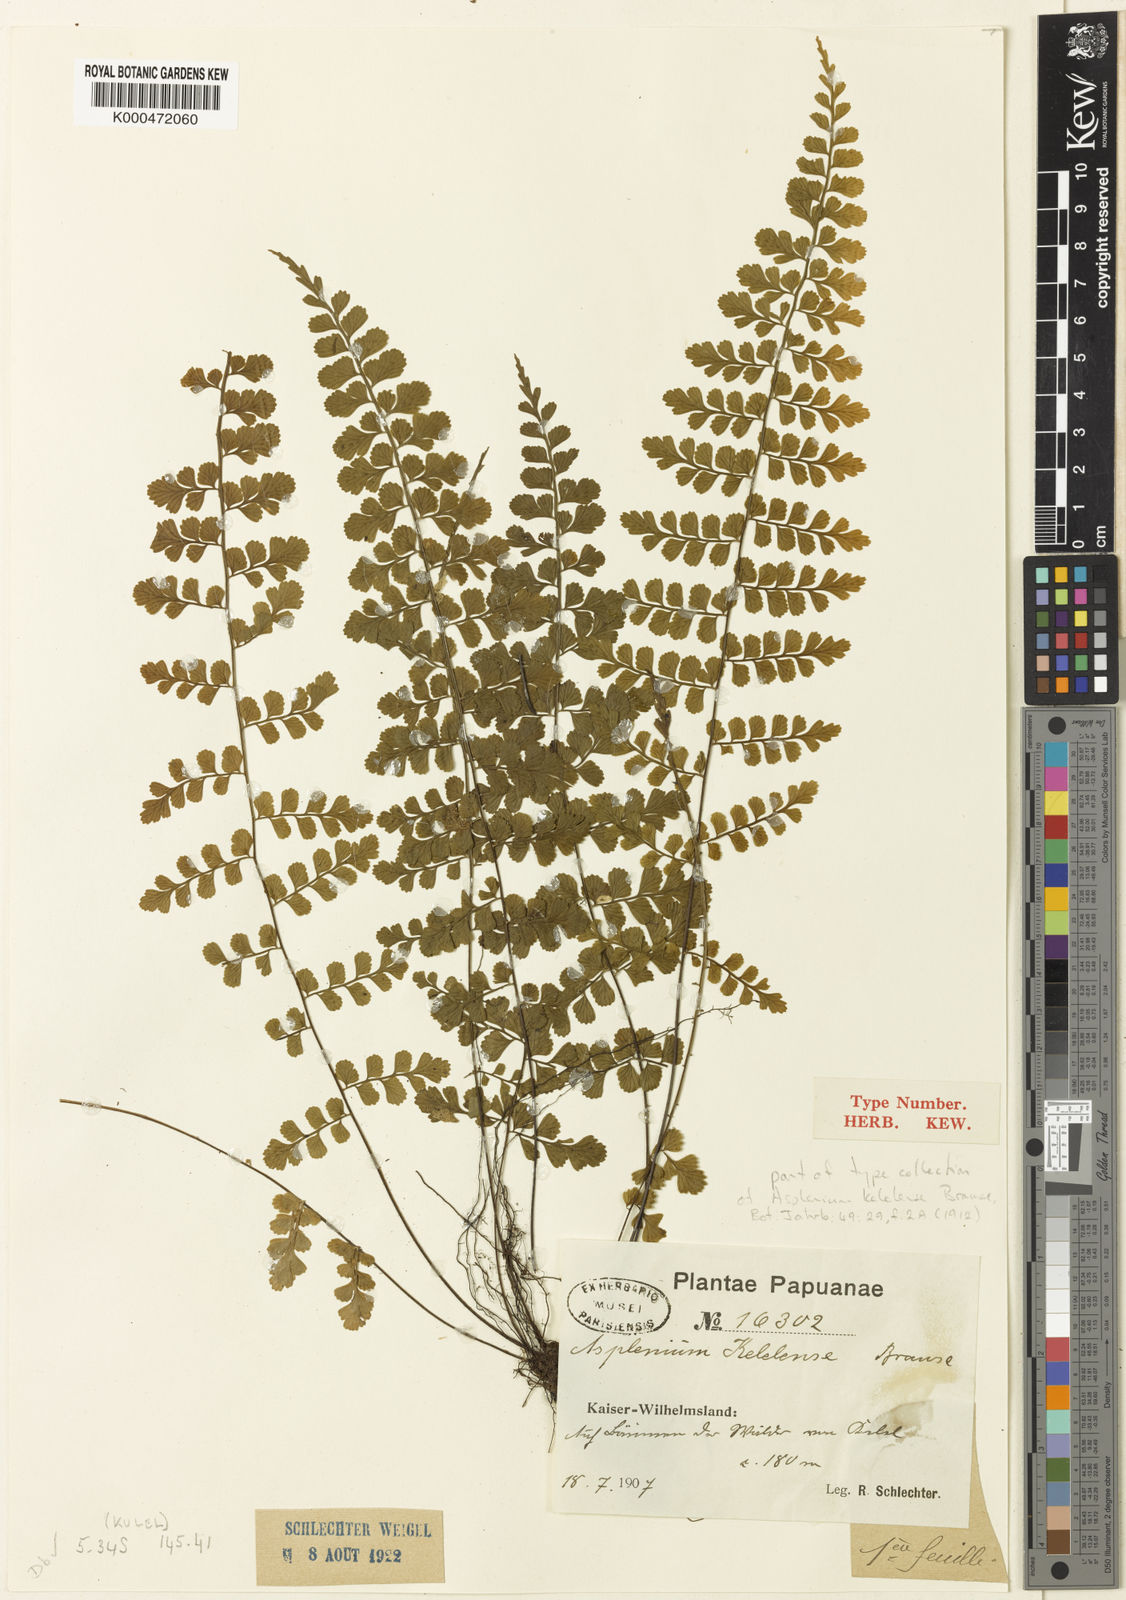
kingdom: Plantae
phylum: Tracheophyta
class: Polypodiopsida
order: Polypodiales
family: Aspleniaceae
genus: Asplenium
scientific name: Asplenium kelelense
